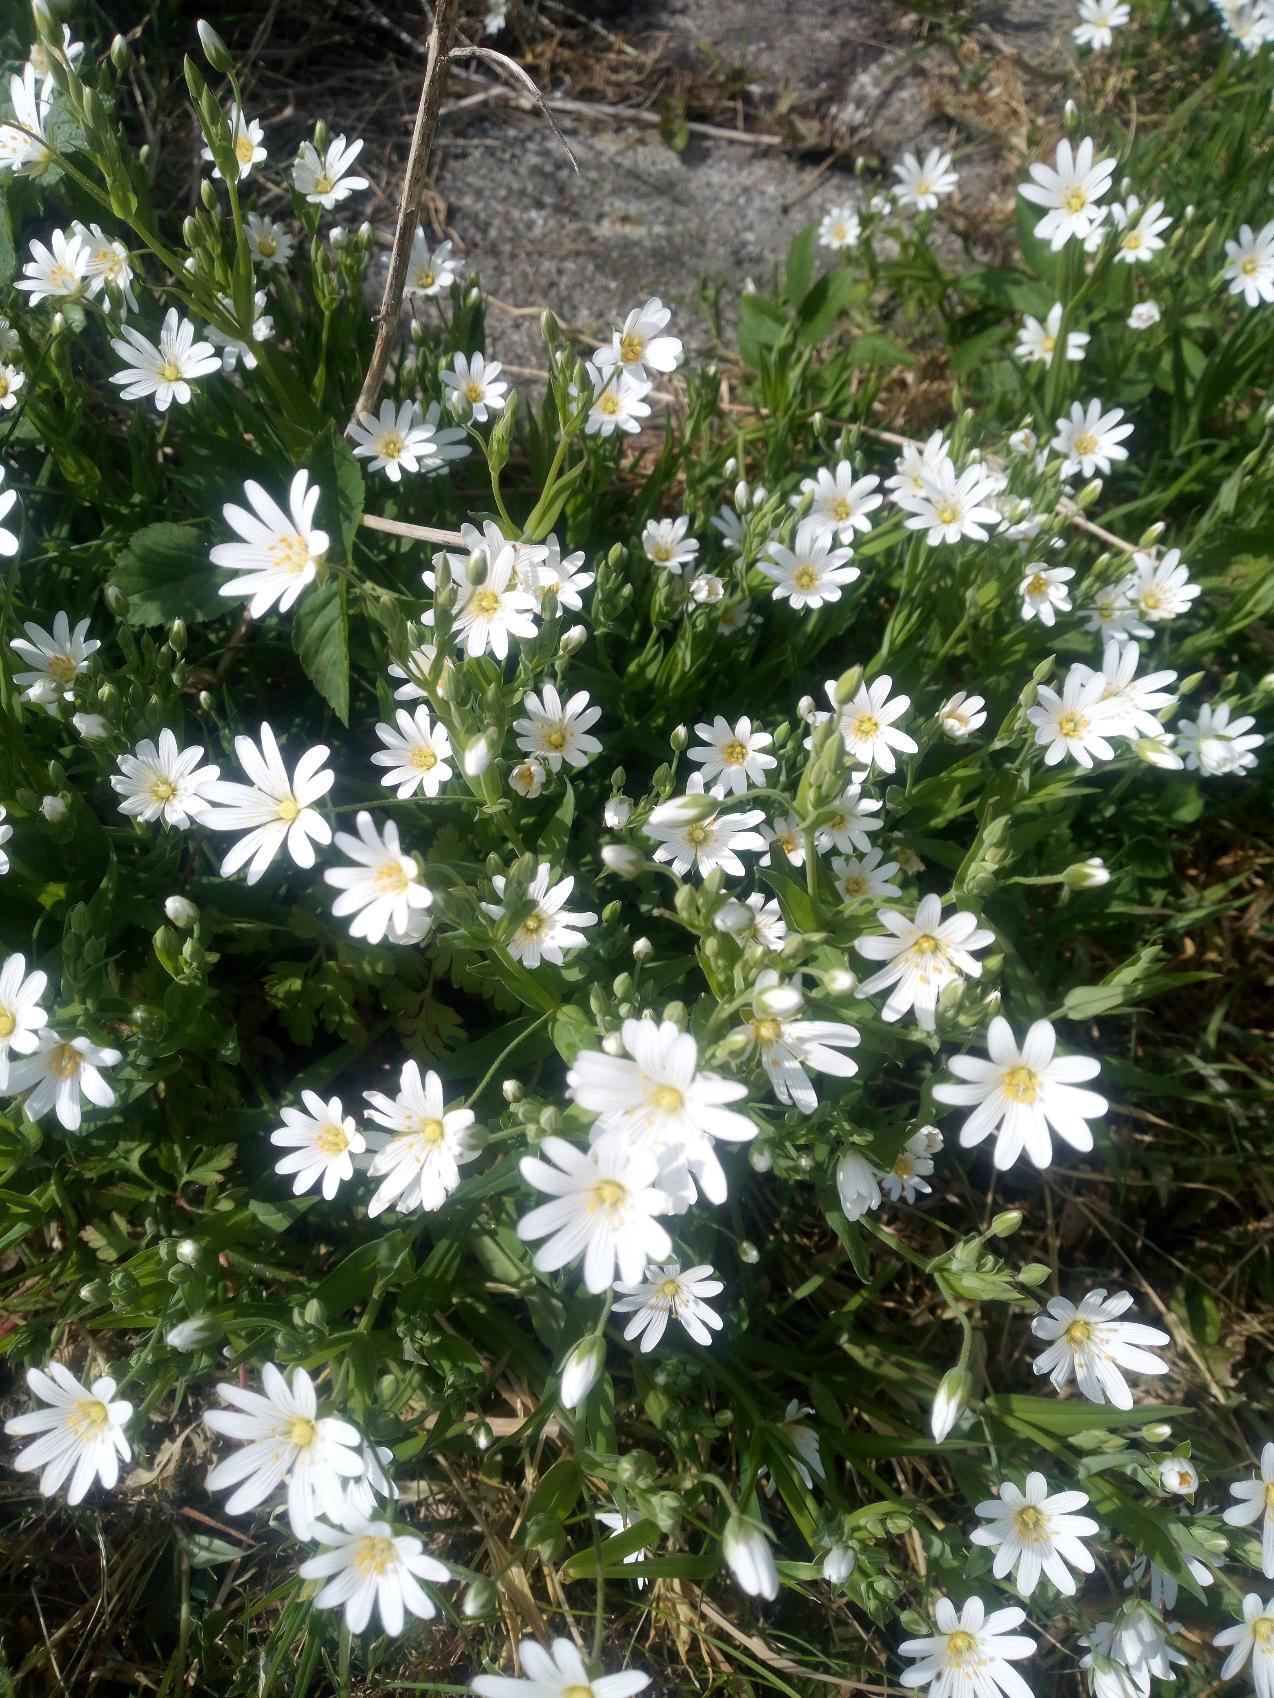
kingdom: Plantae
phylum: Tracheophyta
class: Magnoliopsida
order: Caryophyllales
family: Caryophyllaceae
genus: Rabelera
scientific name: Rabelera holostea
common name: Stor fladstjerne
